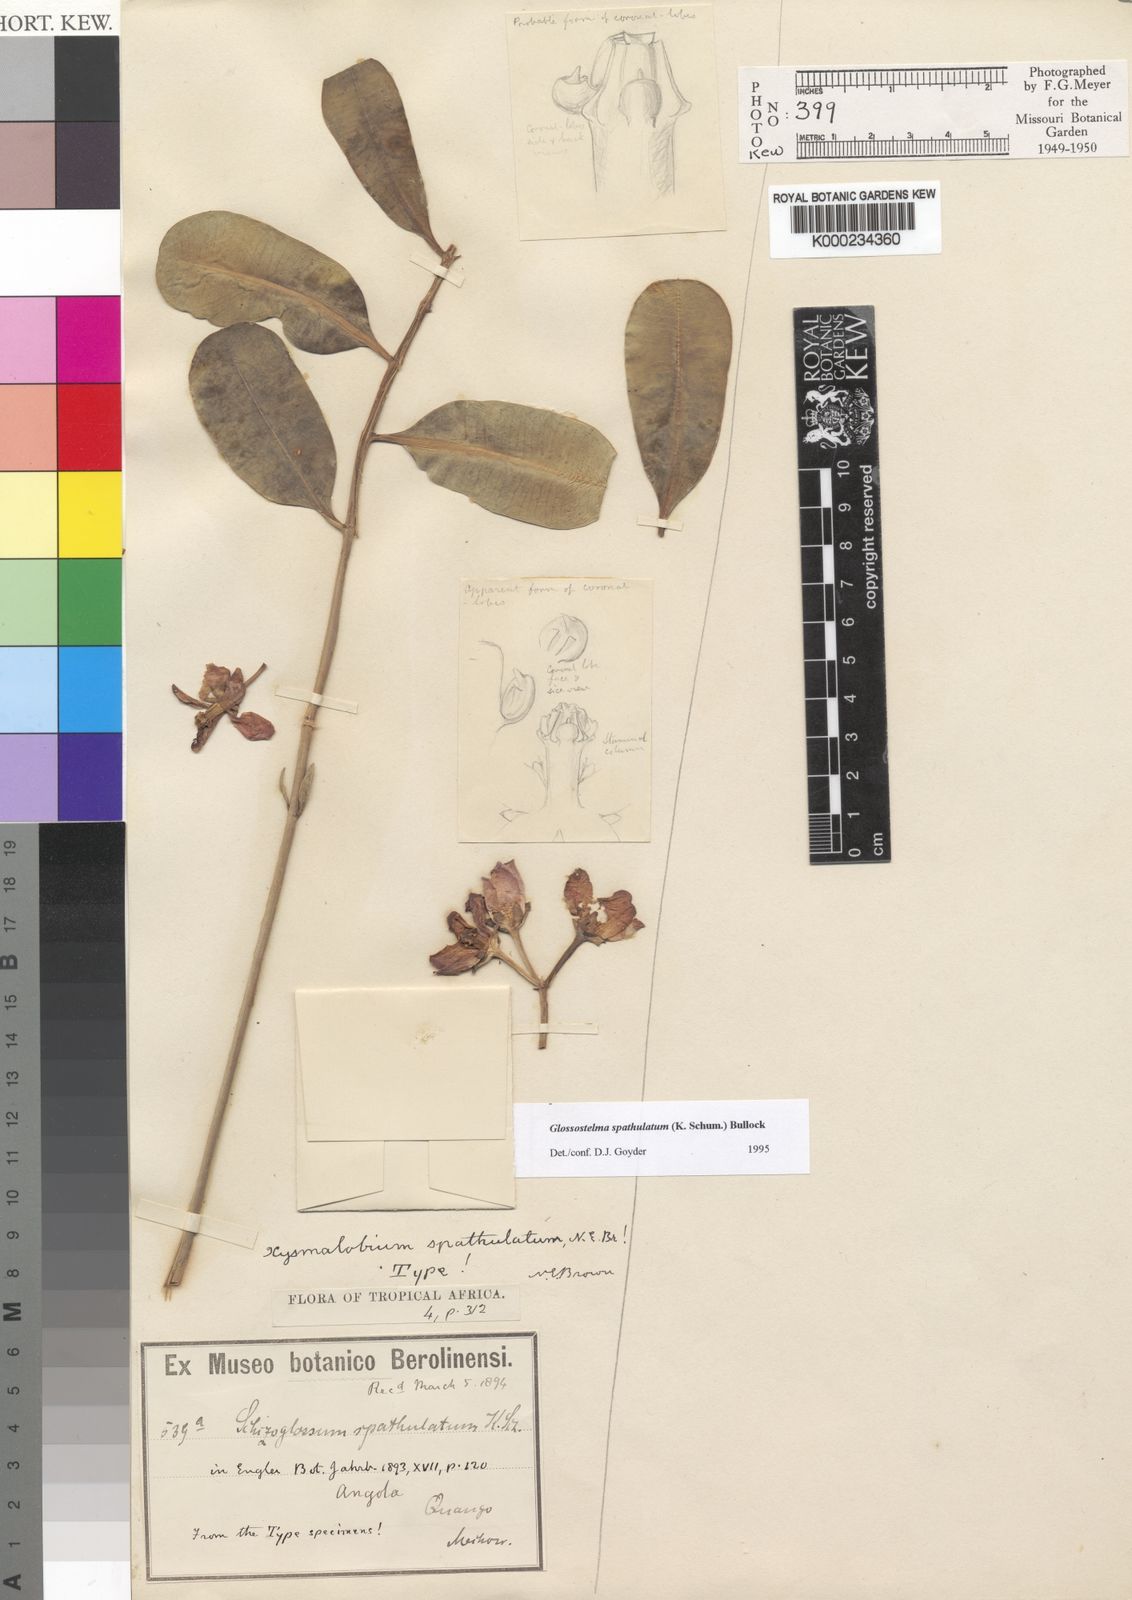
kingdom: Plantae
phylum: Tracheophyta
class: Magnoliopsida
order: Gentianales
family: Apocynaceae
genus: Glossostelma
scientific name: Glossostelma spathulatum
